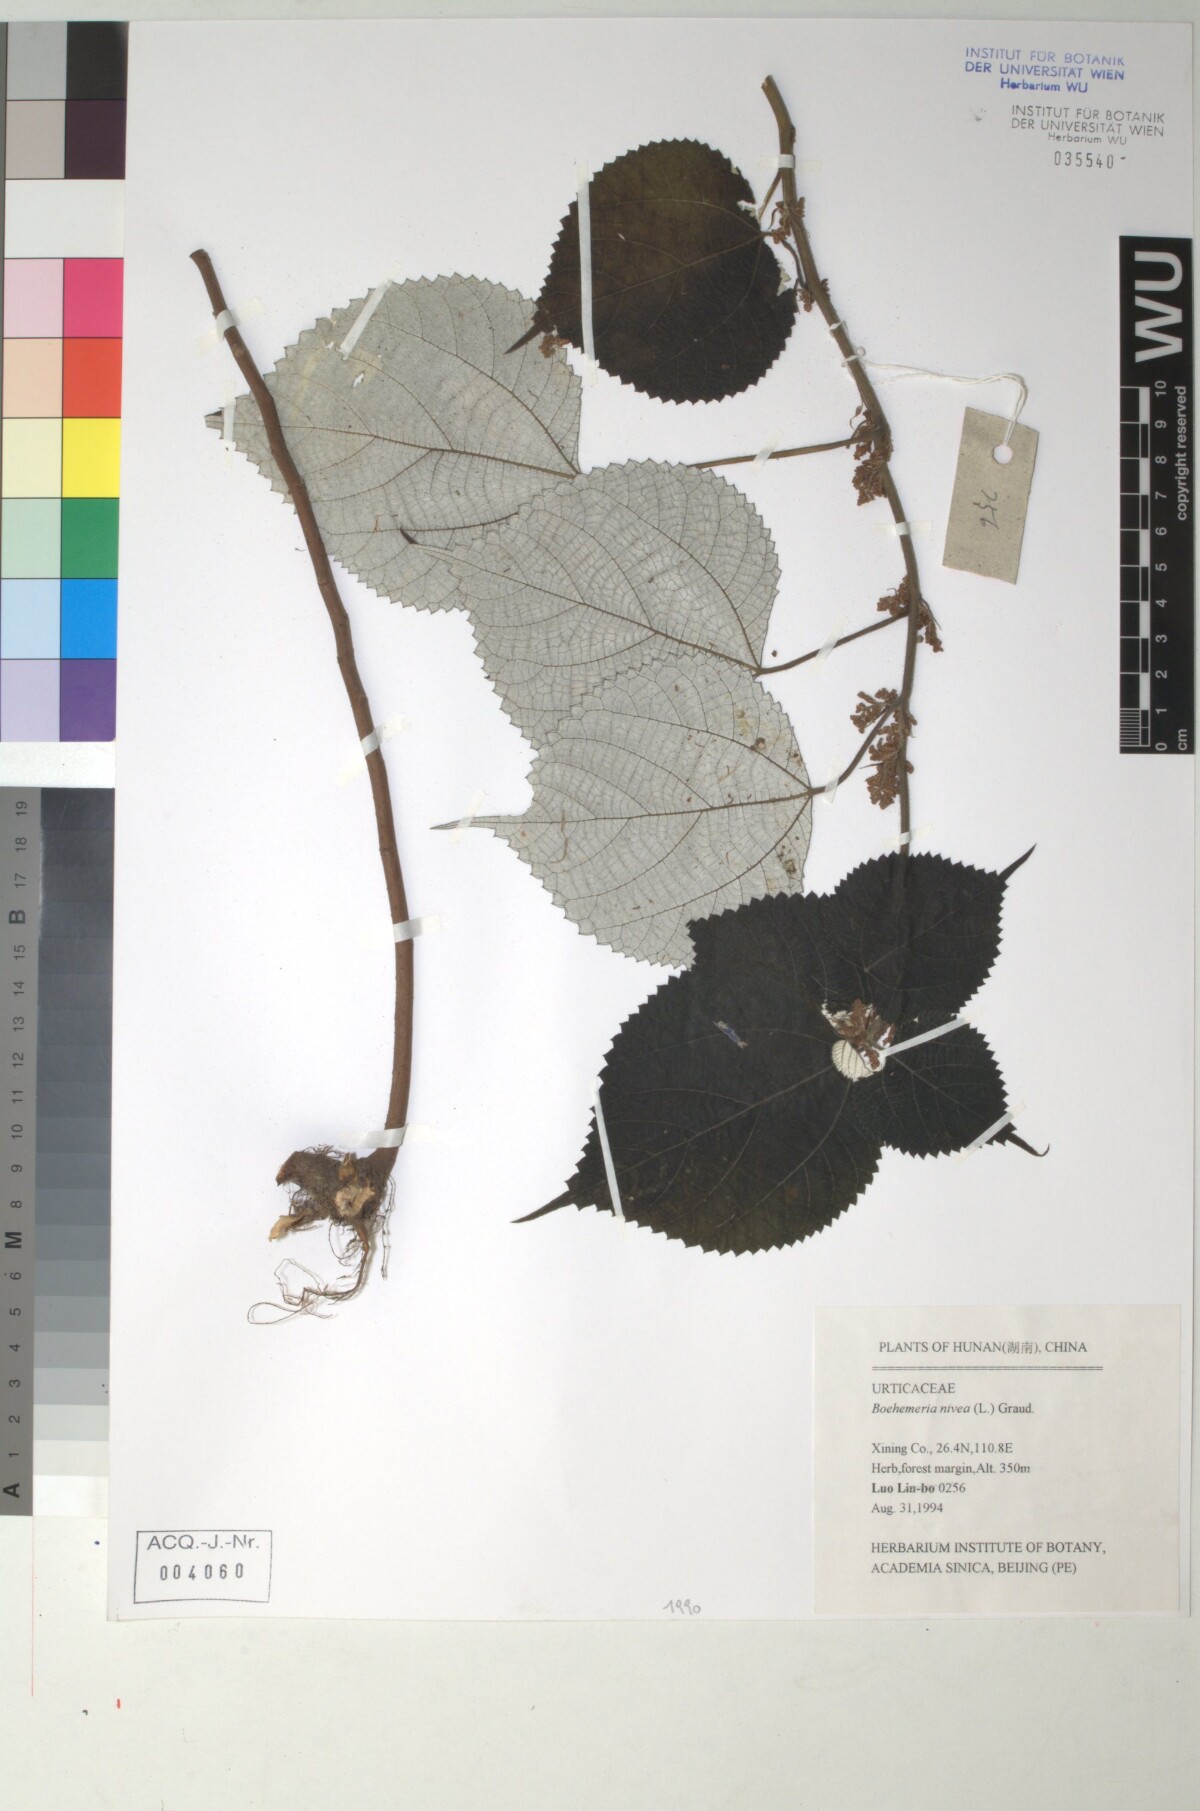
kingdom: Plantae
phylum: Tracheophyta
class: Magnoliopsida
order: Rosales
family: Urticaceae
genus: Boehmeria
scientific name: Boehmeria nivea
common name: Ramie chinese grass
